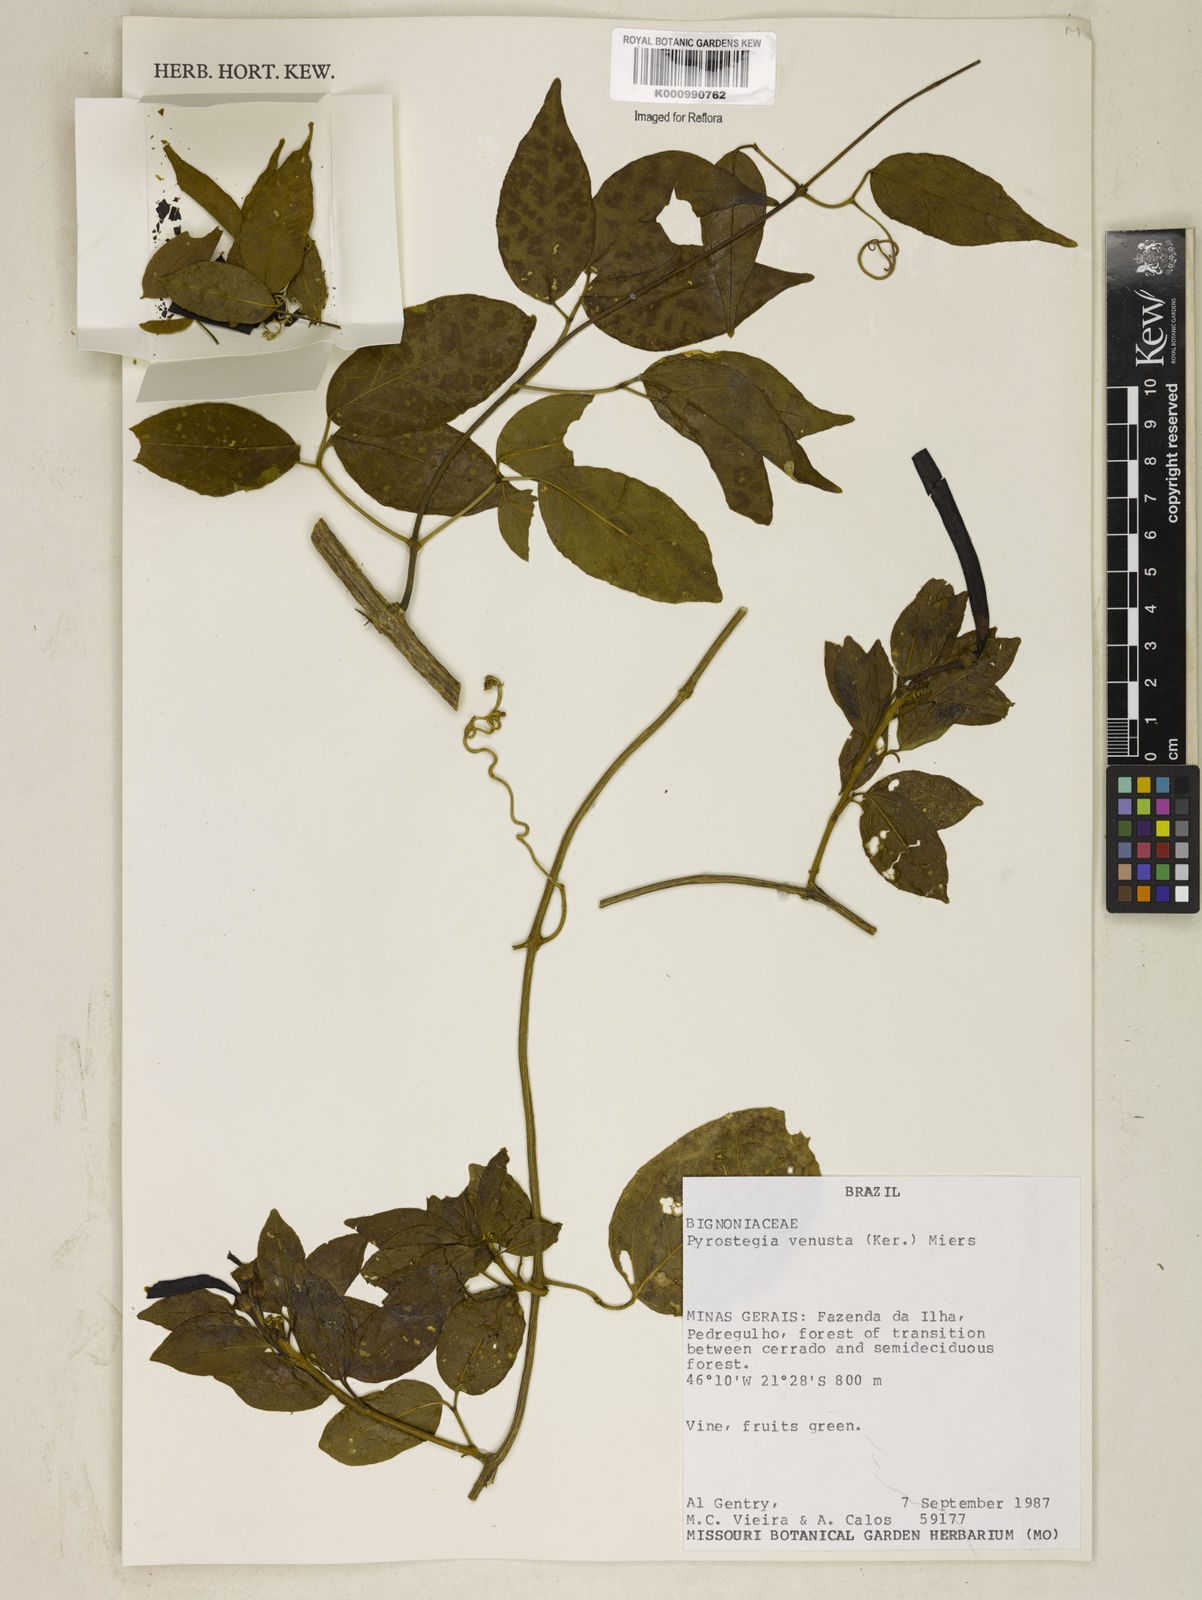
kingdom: Plantae
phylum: Tracheophyta
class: Magnoliopsida
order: Lamiales
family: Bignoniaceae
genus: Pyrostegia
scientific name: Pyrostegia venusta
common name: Flamevine
